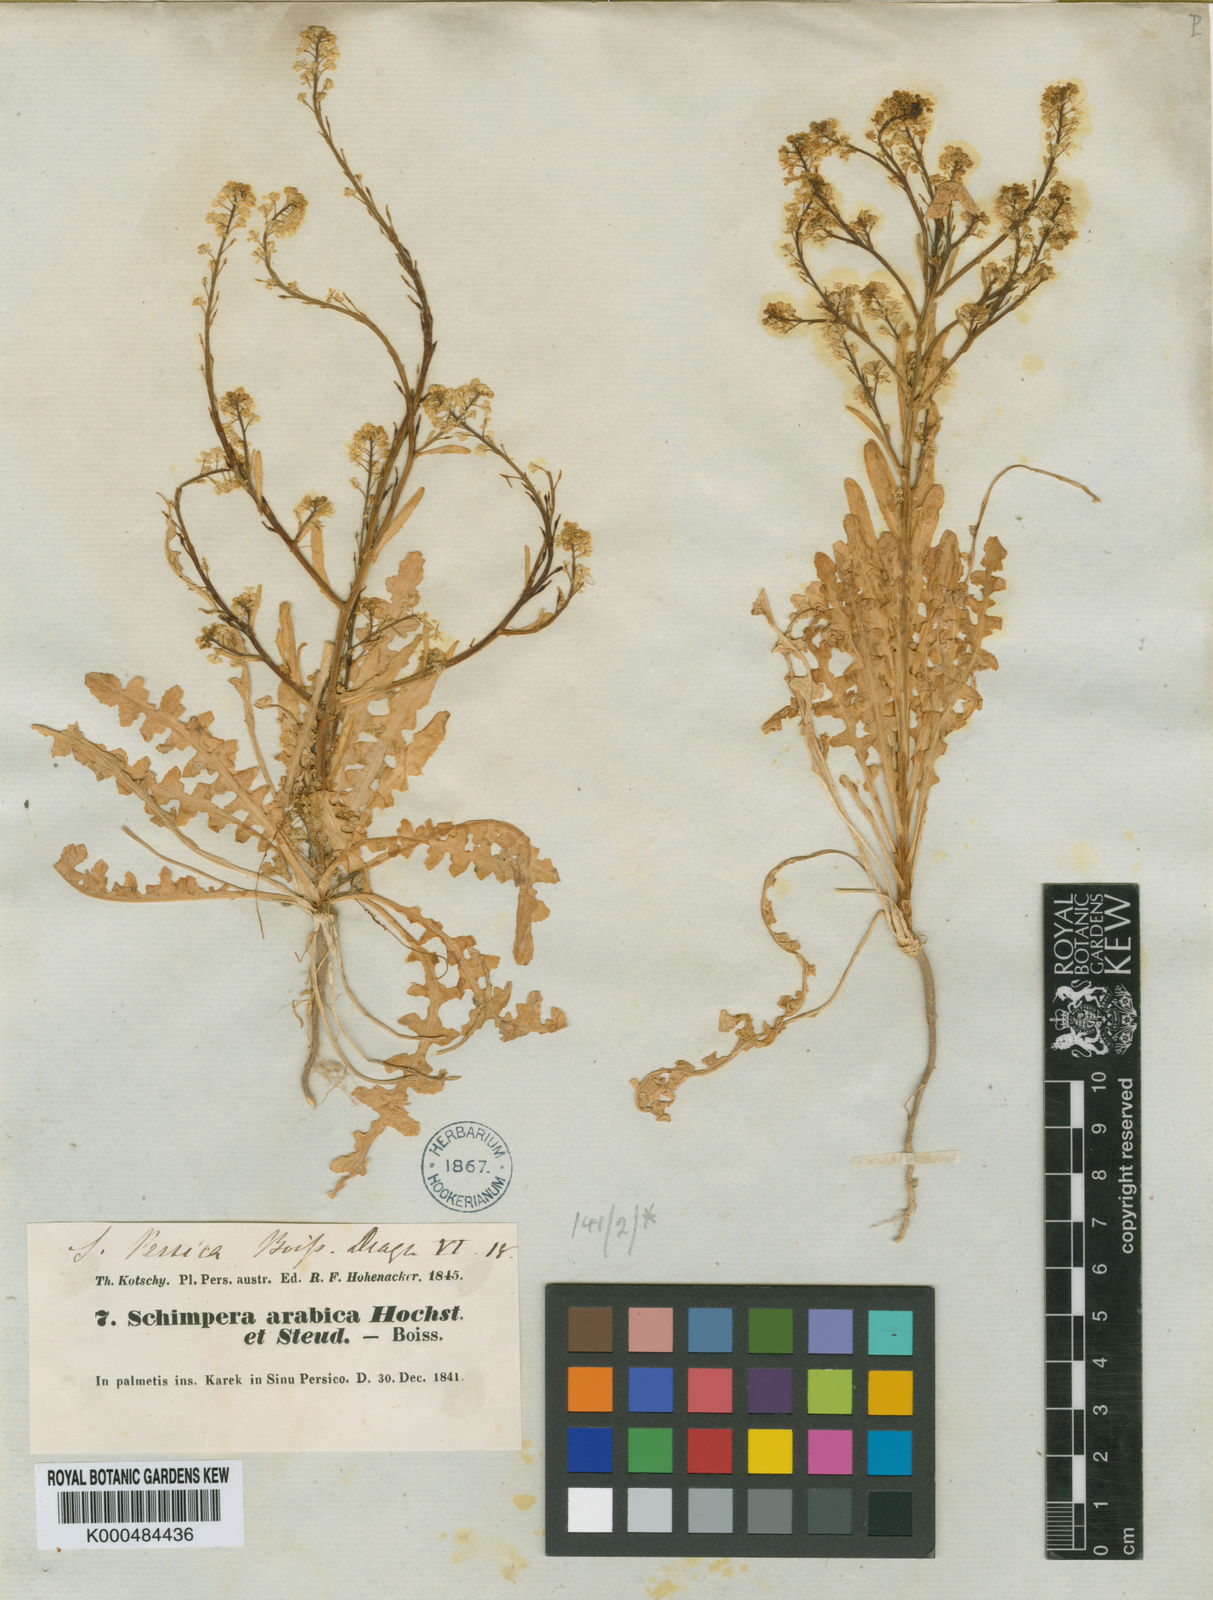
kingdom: Plantae
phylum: Tracheophyta
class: Magnoliopsida
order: Brassicales
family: Brassicaceae
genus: Schimpera
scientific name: Schimpera arabica
